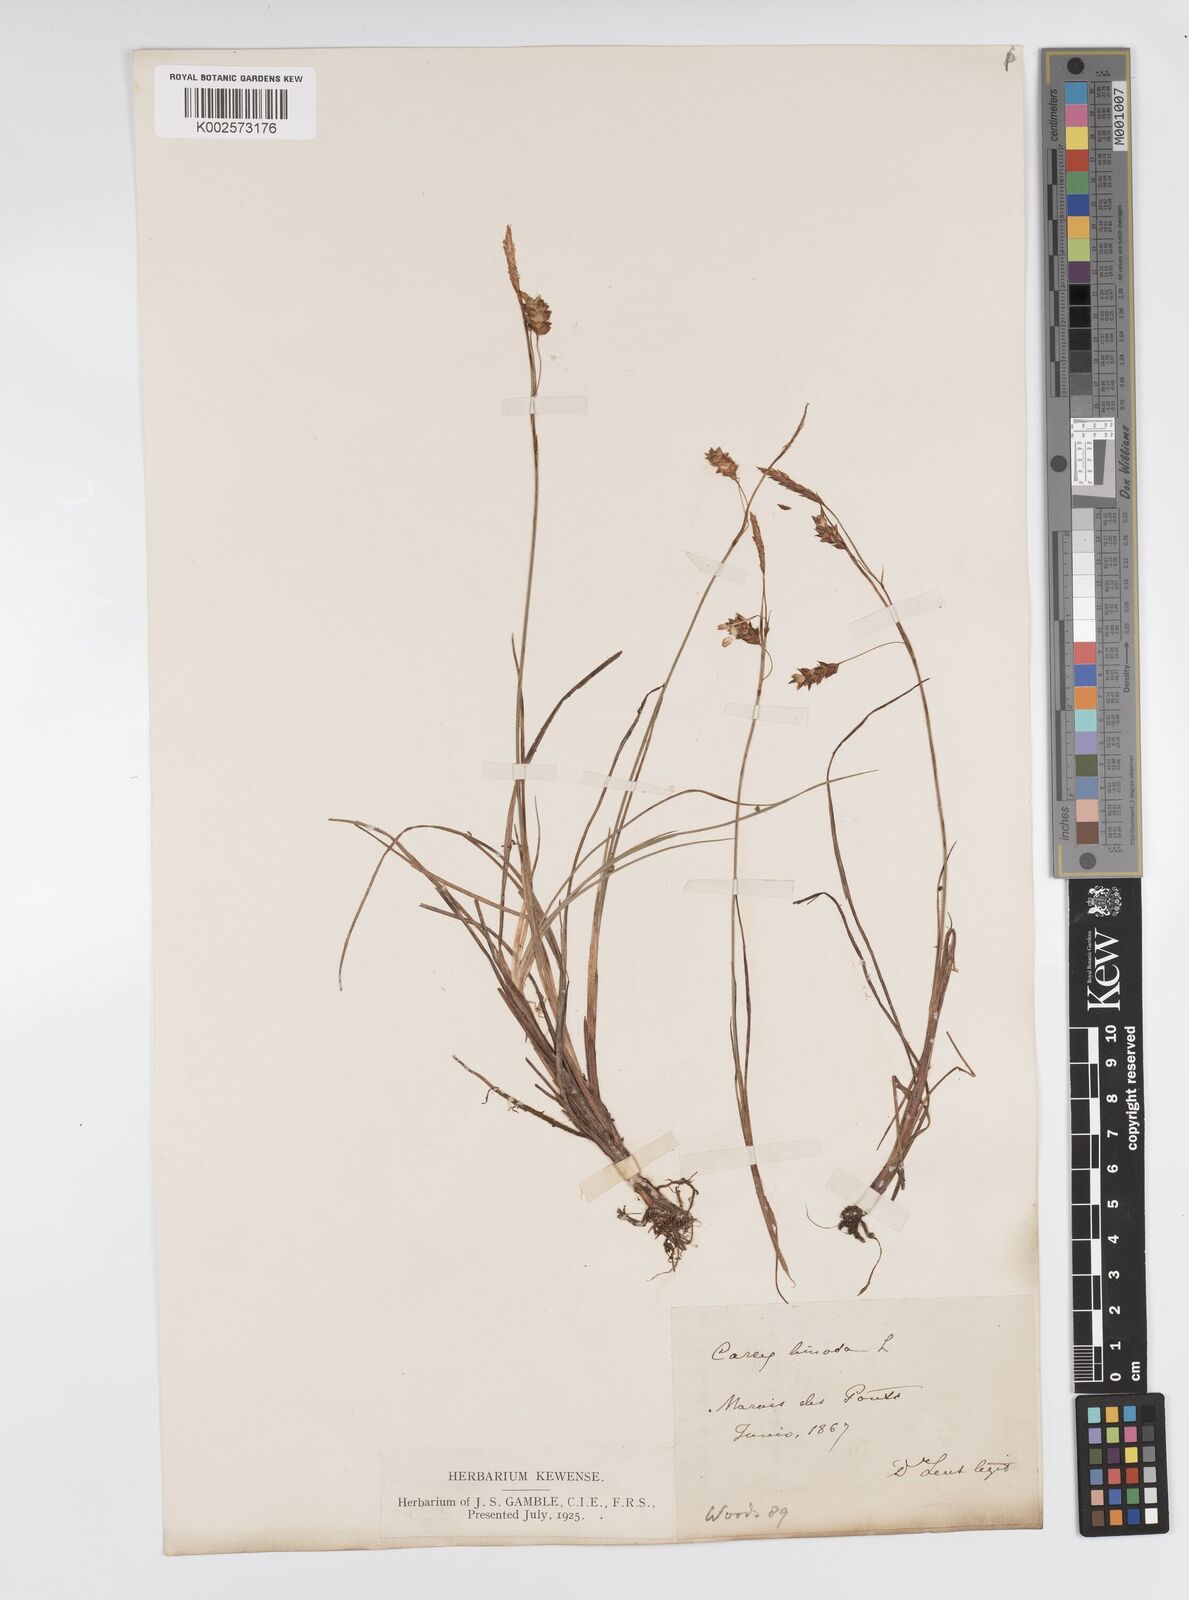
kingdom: Plantae
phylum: Tracheophyta
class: Liliopsida
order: Poales
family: Cyperaceae
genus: Carex
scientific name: Carex limosa
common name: Bog sedge
